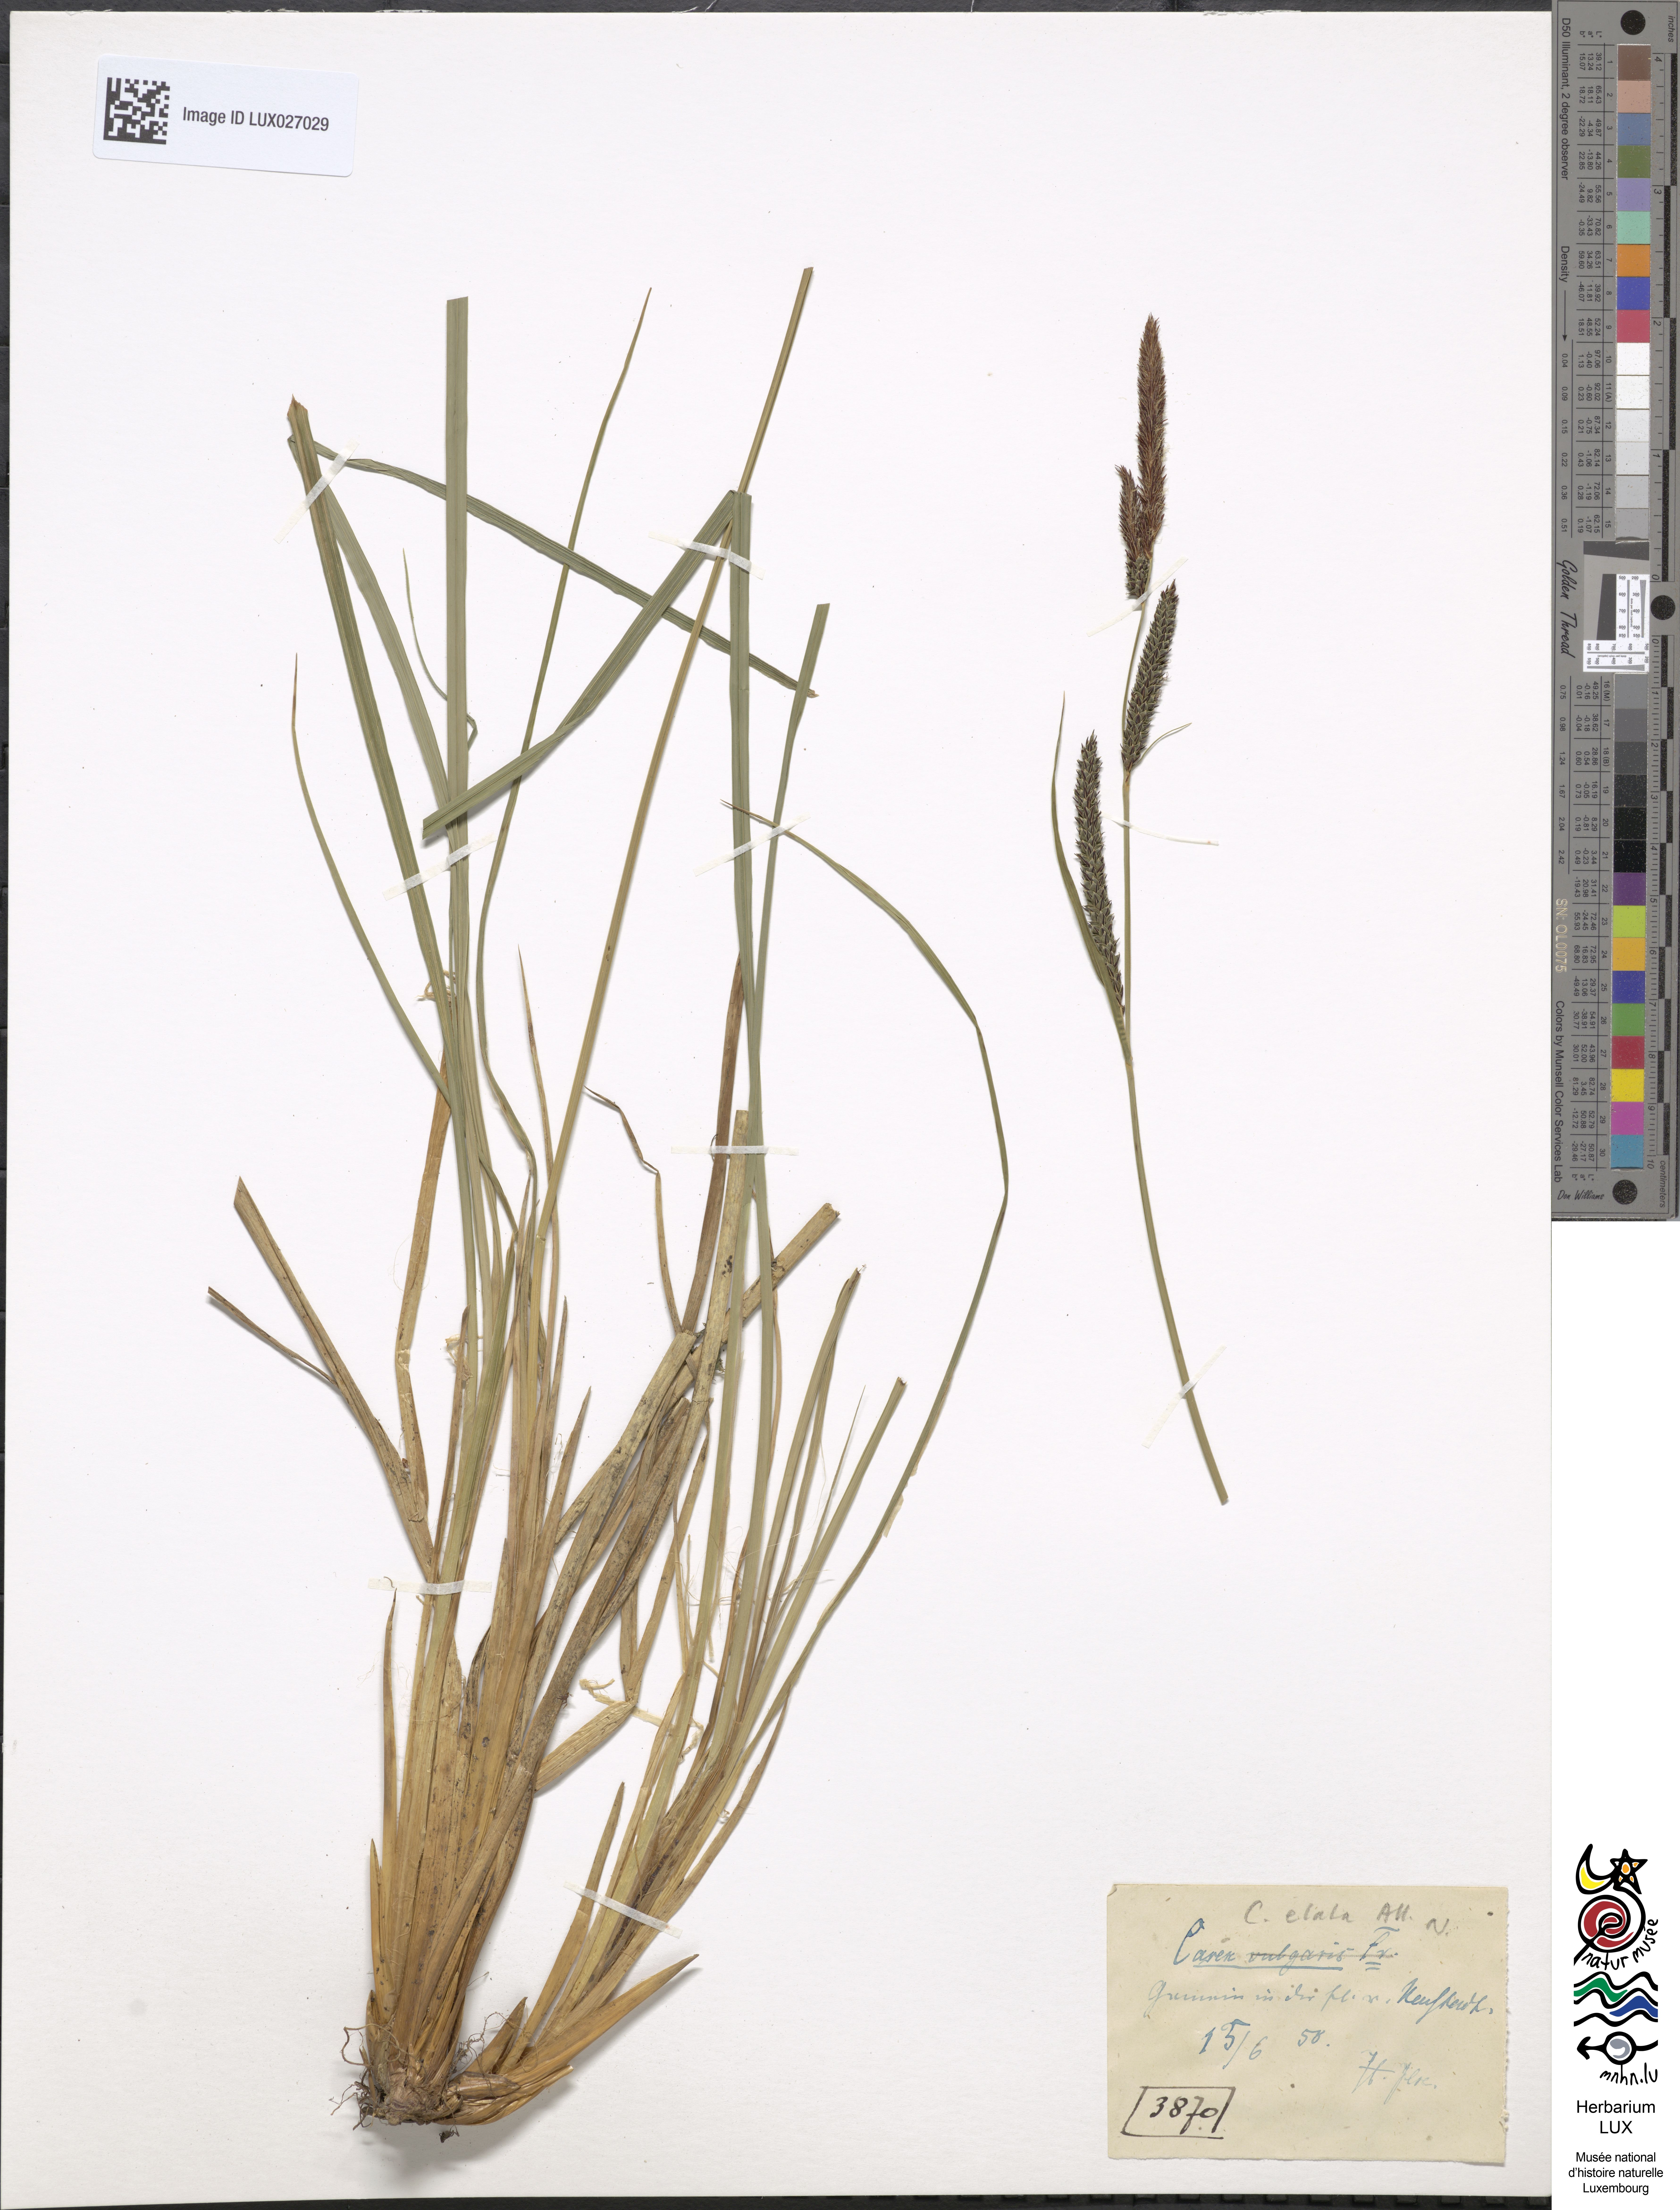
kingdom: Plantae
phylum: Tracheophyta
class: Liliopsida
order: Poales
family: Cyperaceae
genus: Carex
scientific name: Carex nigra
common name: Common sedge
